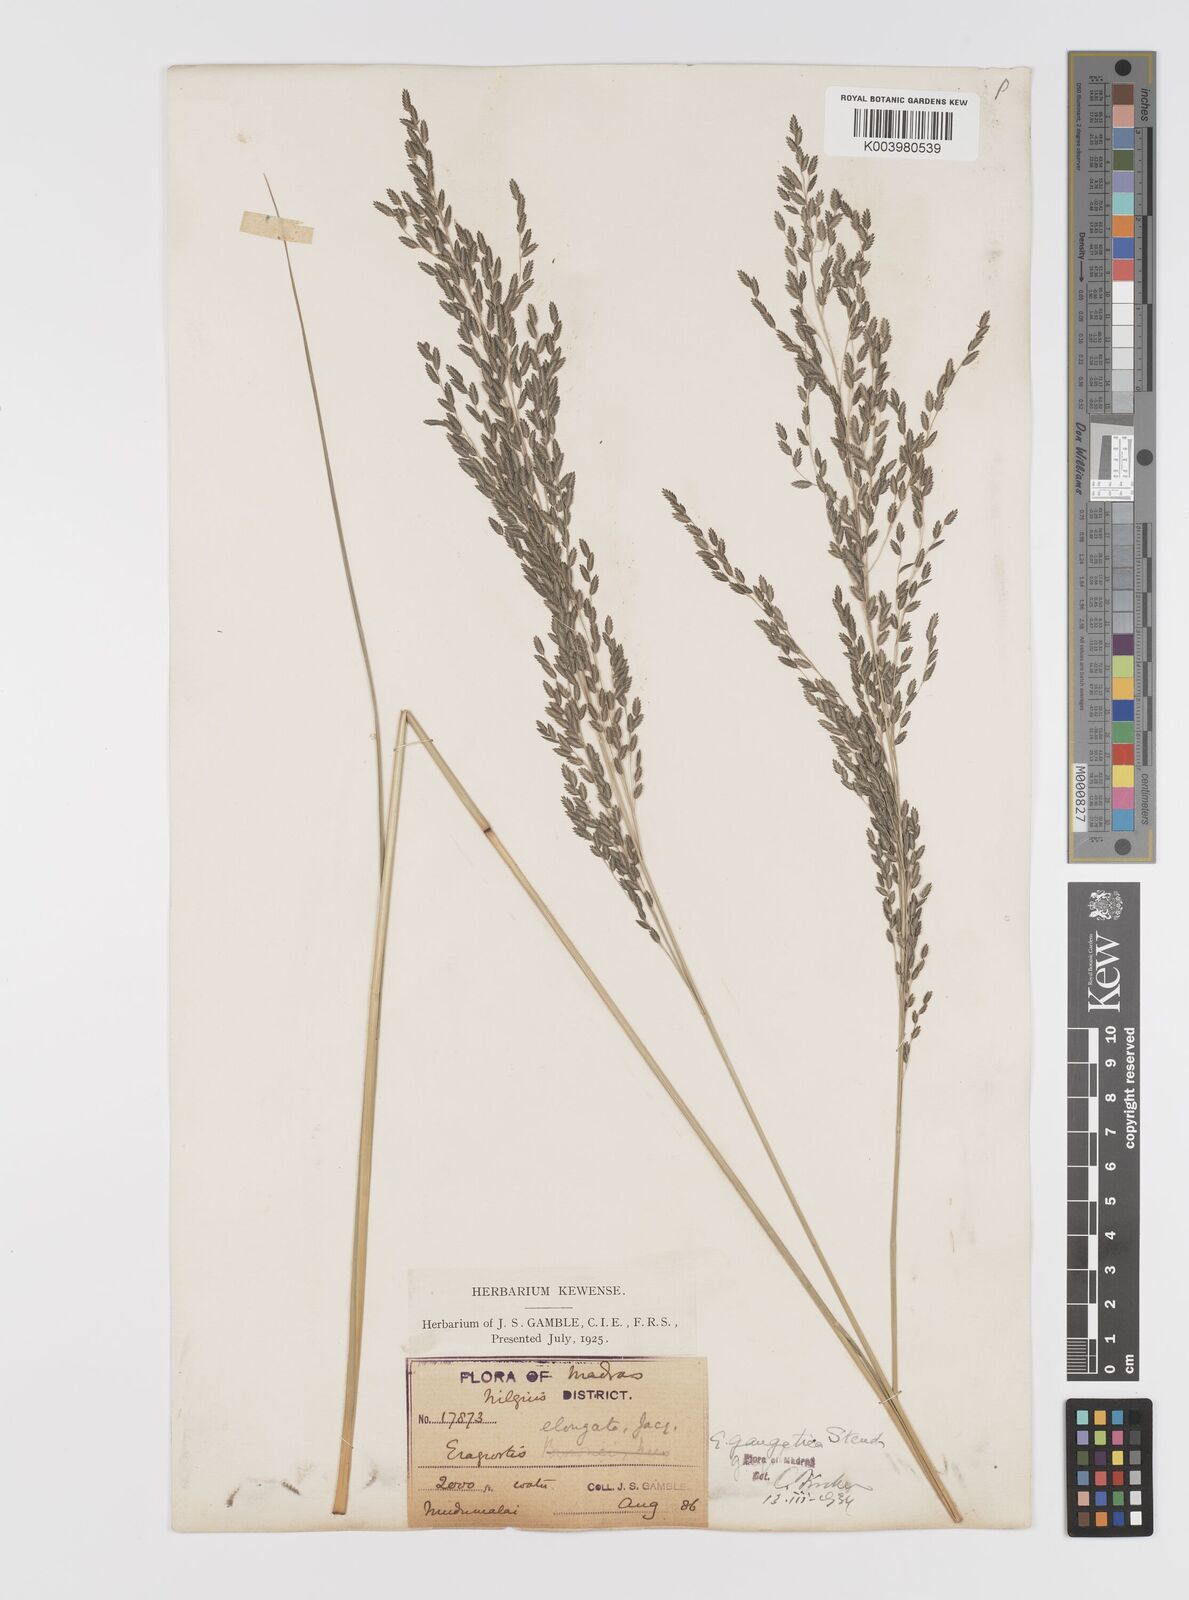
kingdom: Plantae
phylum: Tracheophyta
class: Liliopsida
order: Poales
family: Poaceae
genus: Eragrostis
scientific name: Eragrostis
